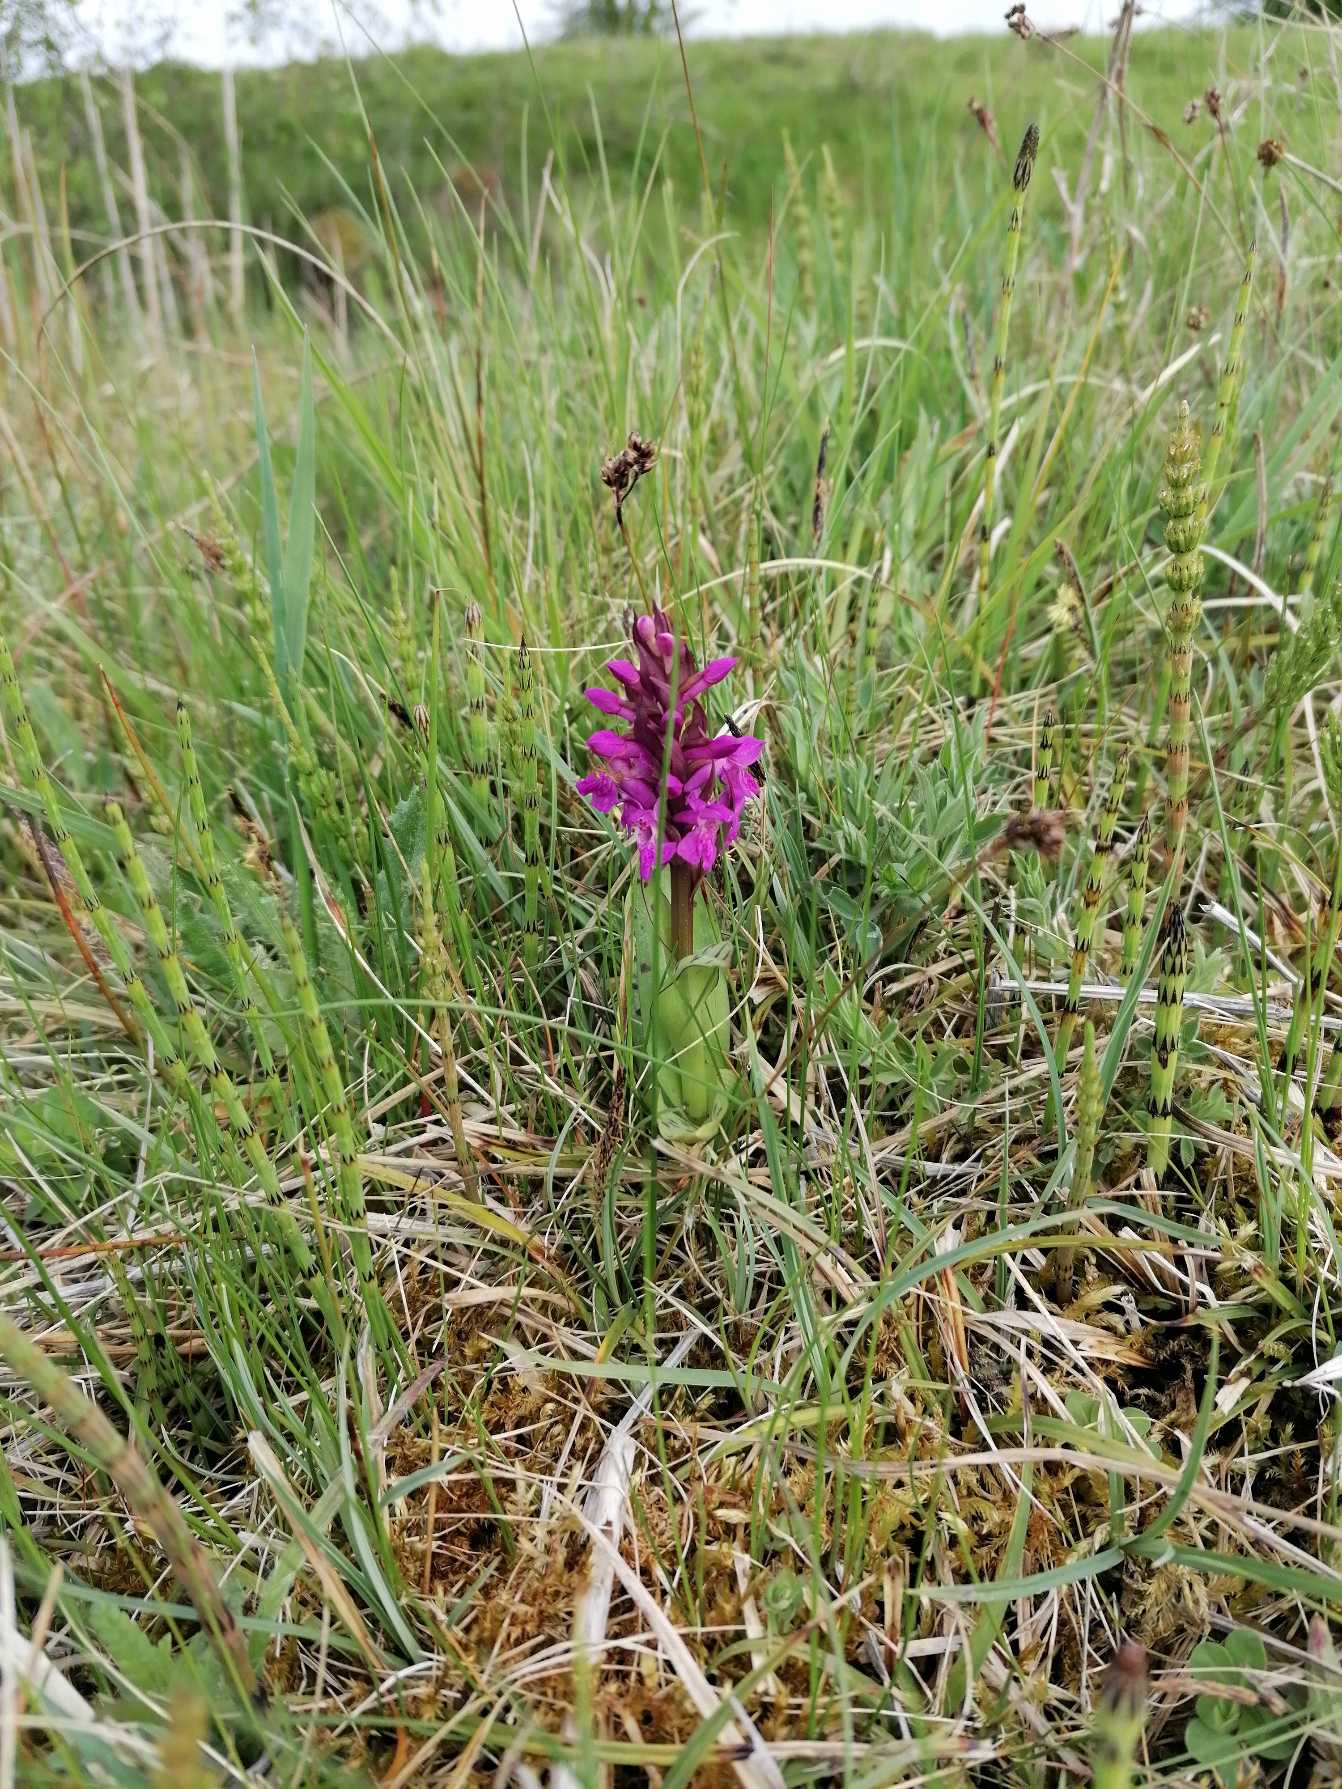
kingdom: Plantae
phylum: Tracheophyta
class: Liliopsida
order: Asparagales
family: Orchidaceae
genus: Dactylorhiza
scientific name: Dactylorhiza majalis
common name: Maj-gøgeurt
